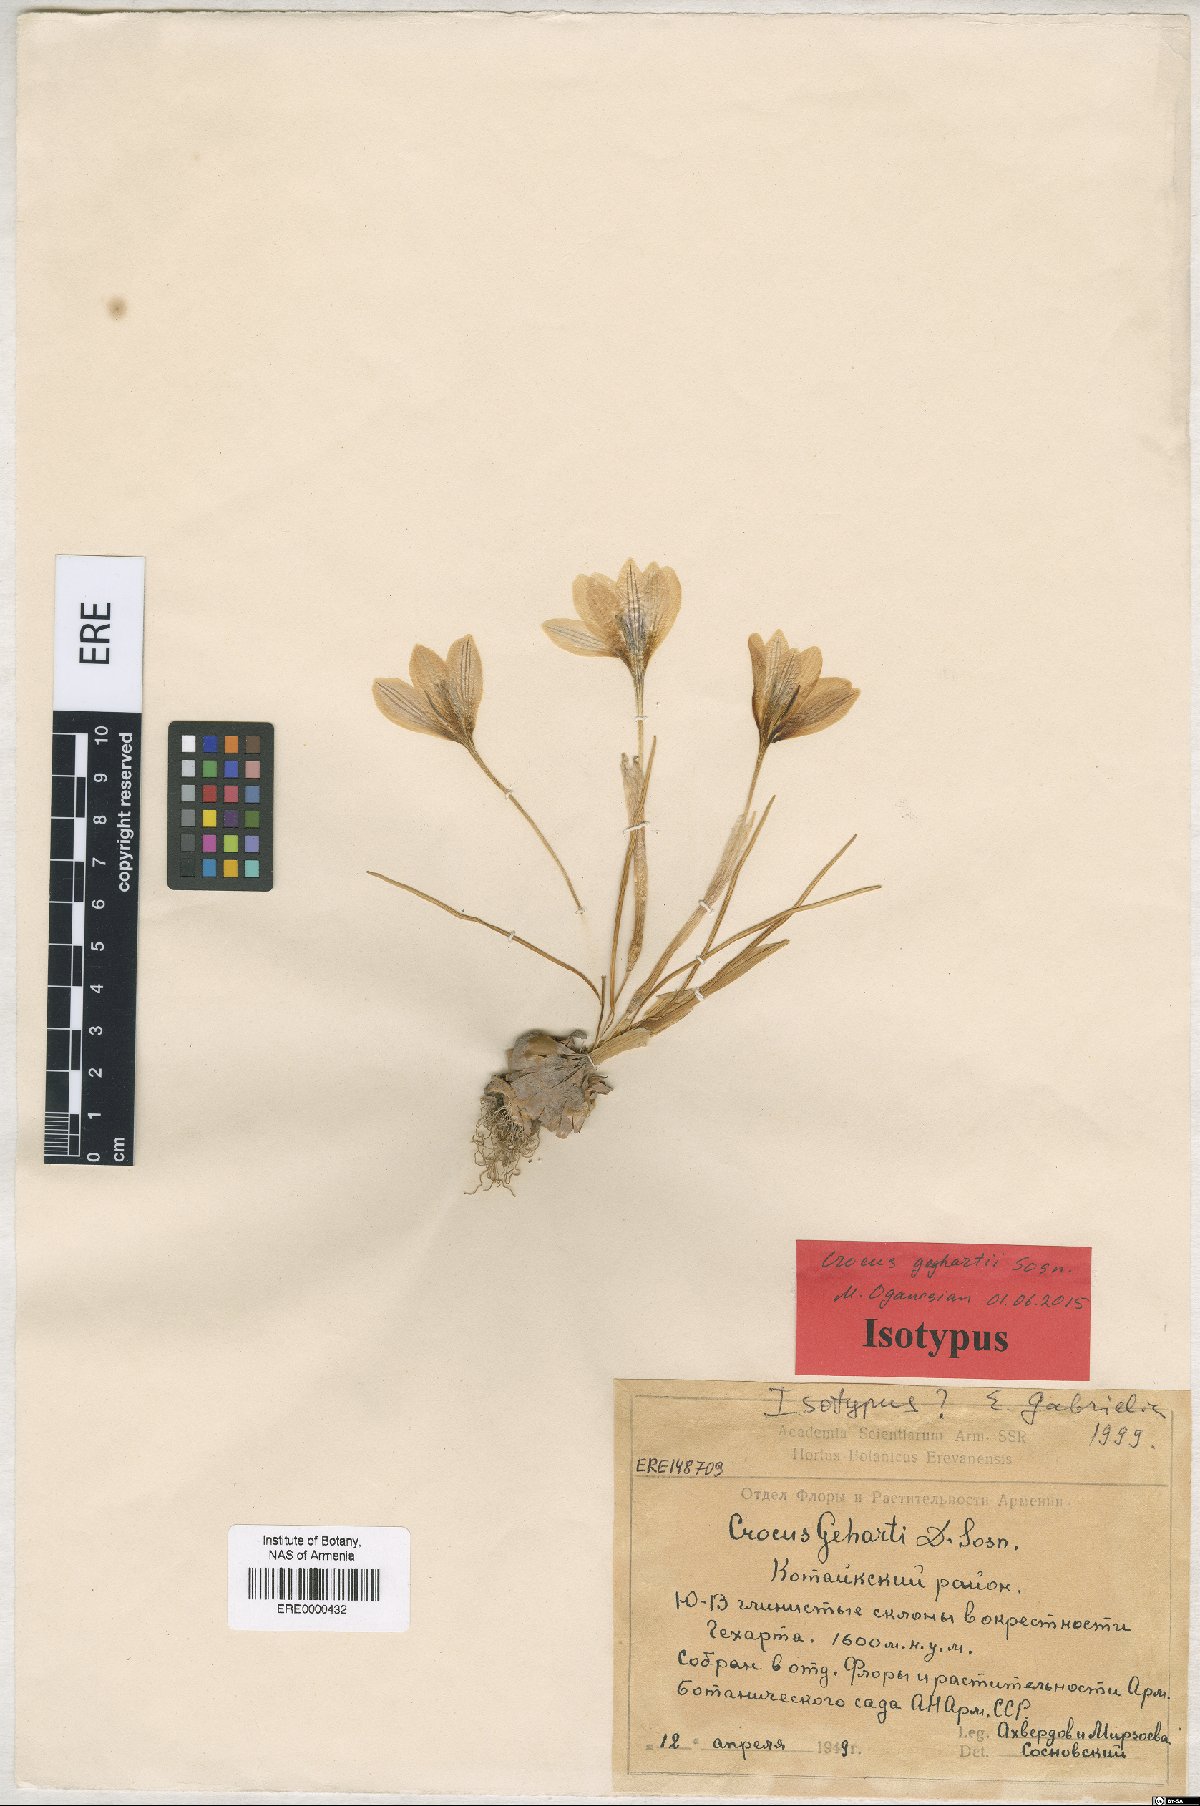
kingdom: Plantae
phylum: Tracheophyta
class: Liliopsida
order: Asparagales
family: Iridaceae
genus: Crocus
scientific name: Crocus geghartii
